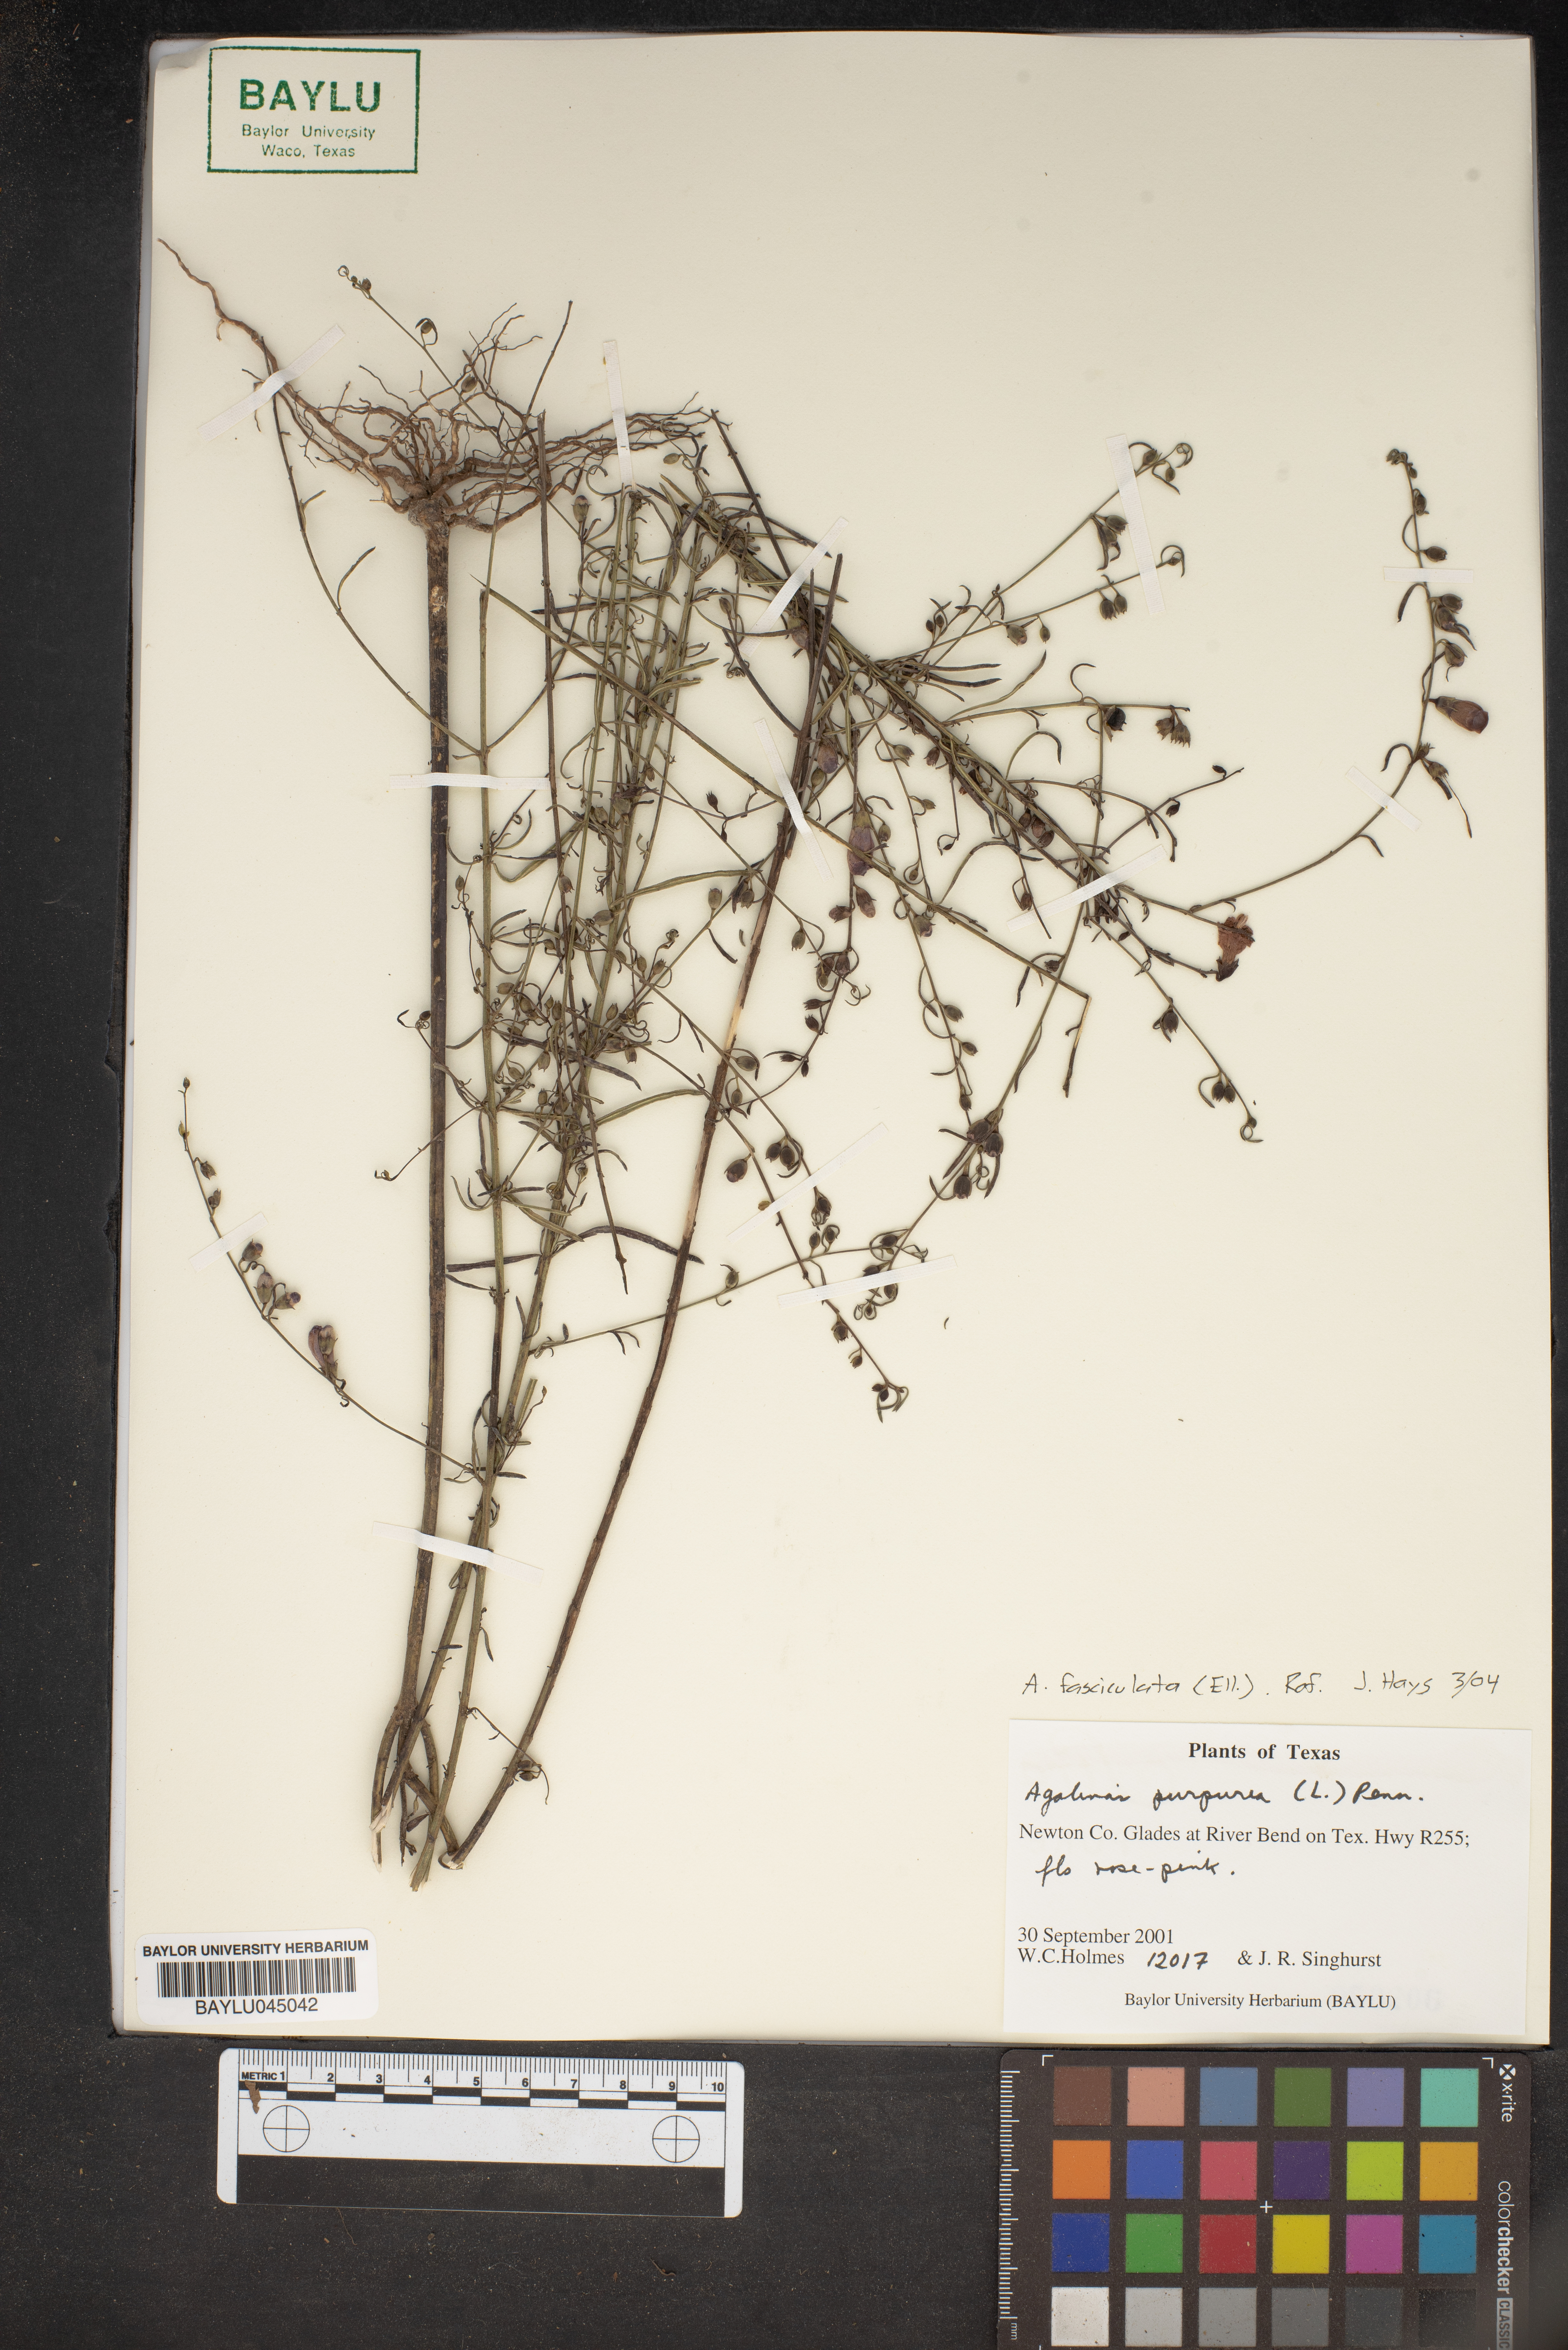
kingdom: Plantae
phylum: Tracheophyta
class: Magnoliopsida
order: Lamiales
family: Orobanchaceae
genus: Agalinis
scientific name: Agalinis purpurea
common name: Purple false foxglove
